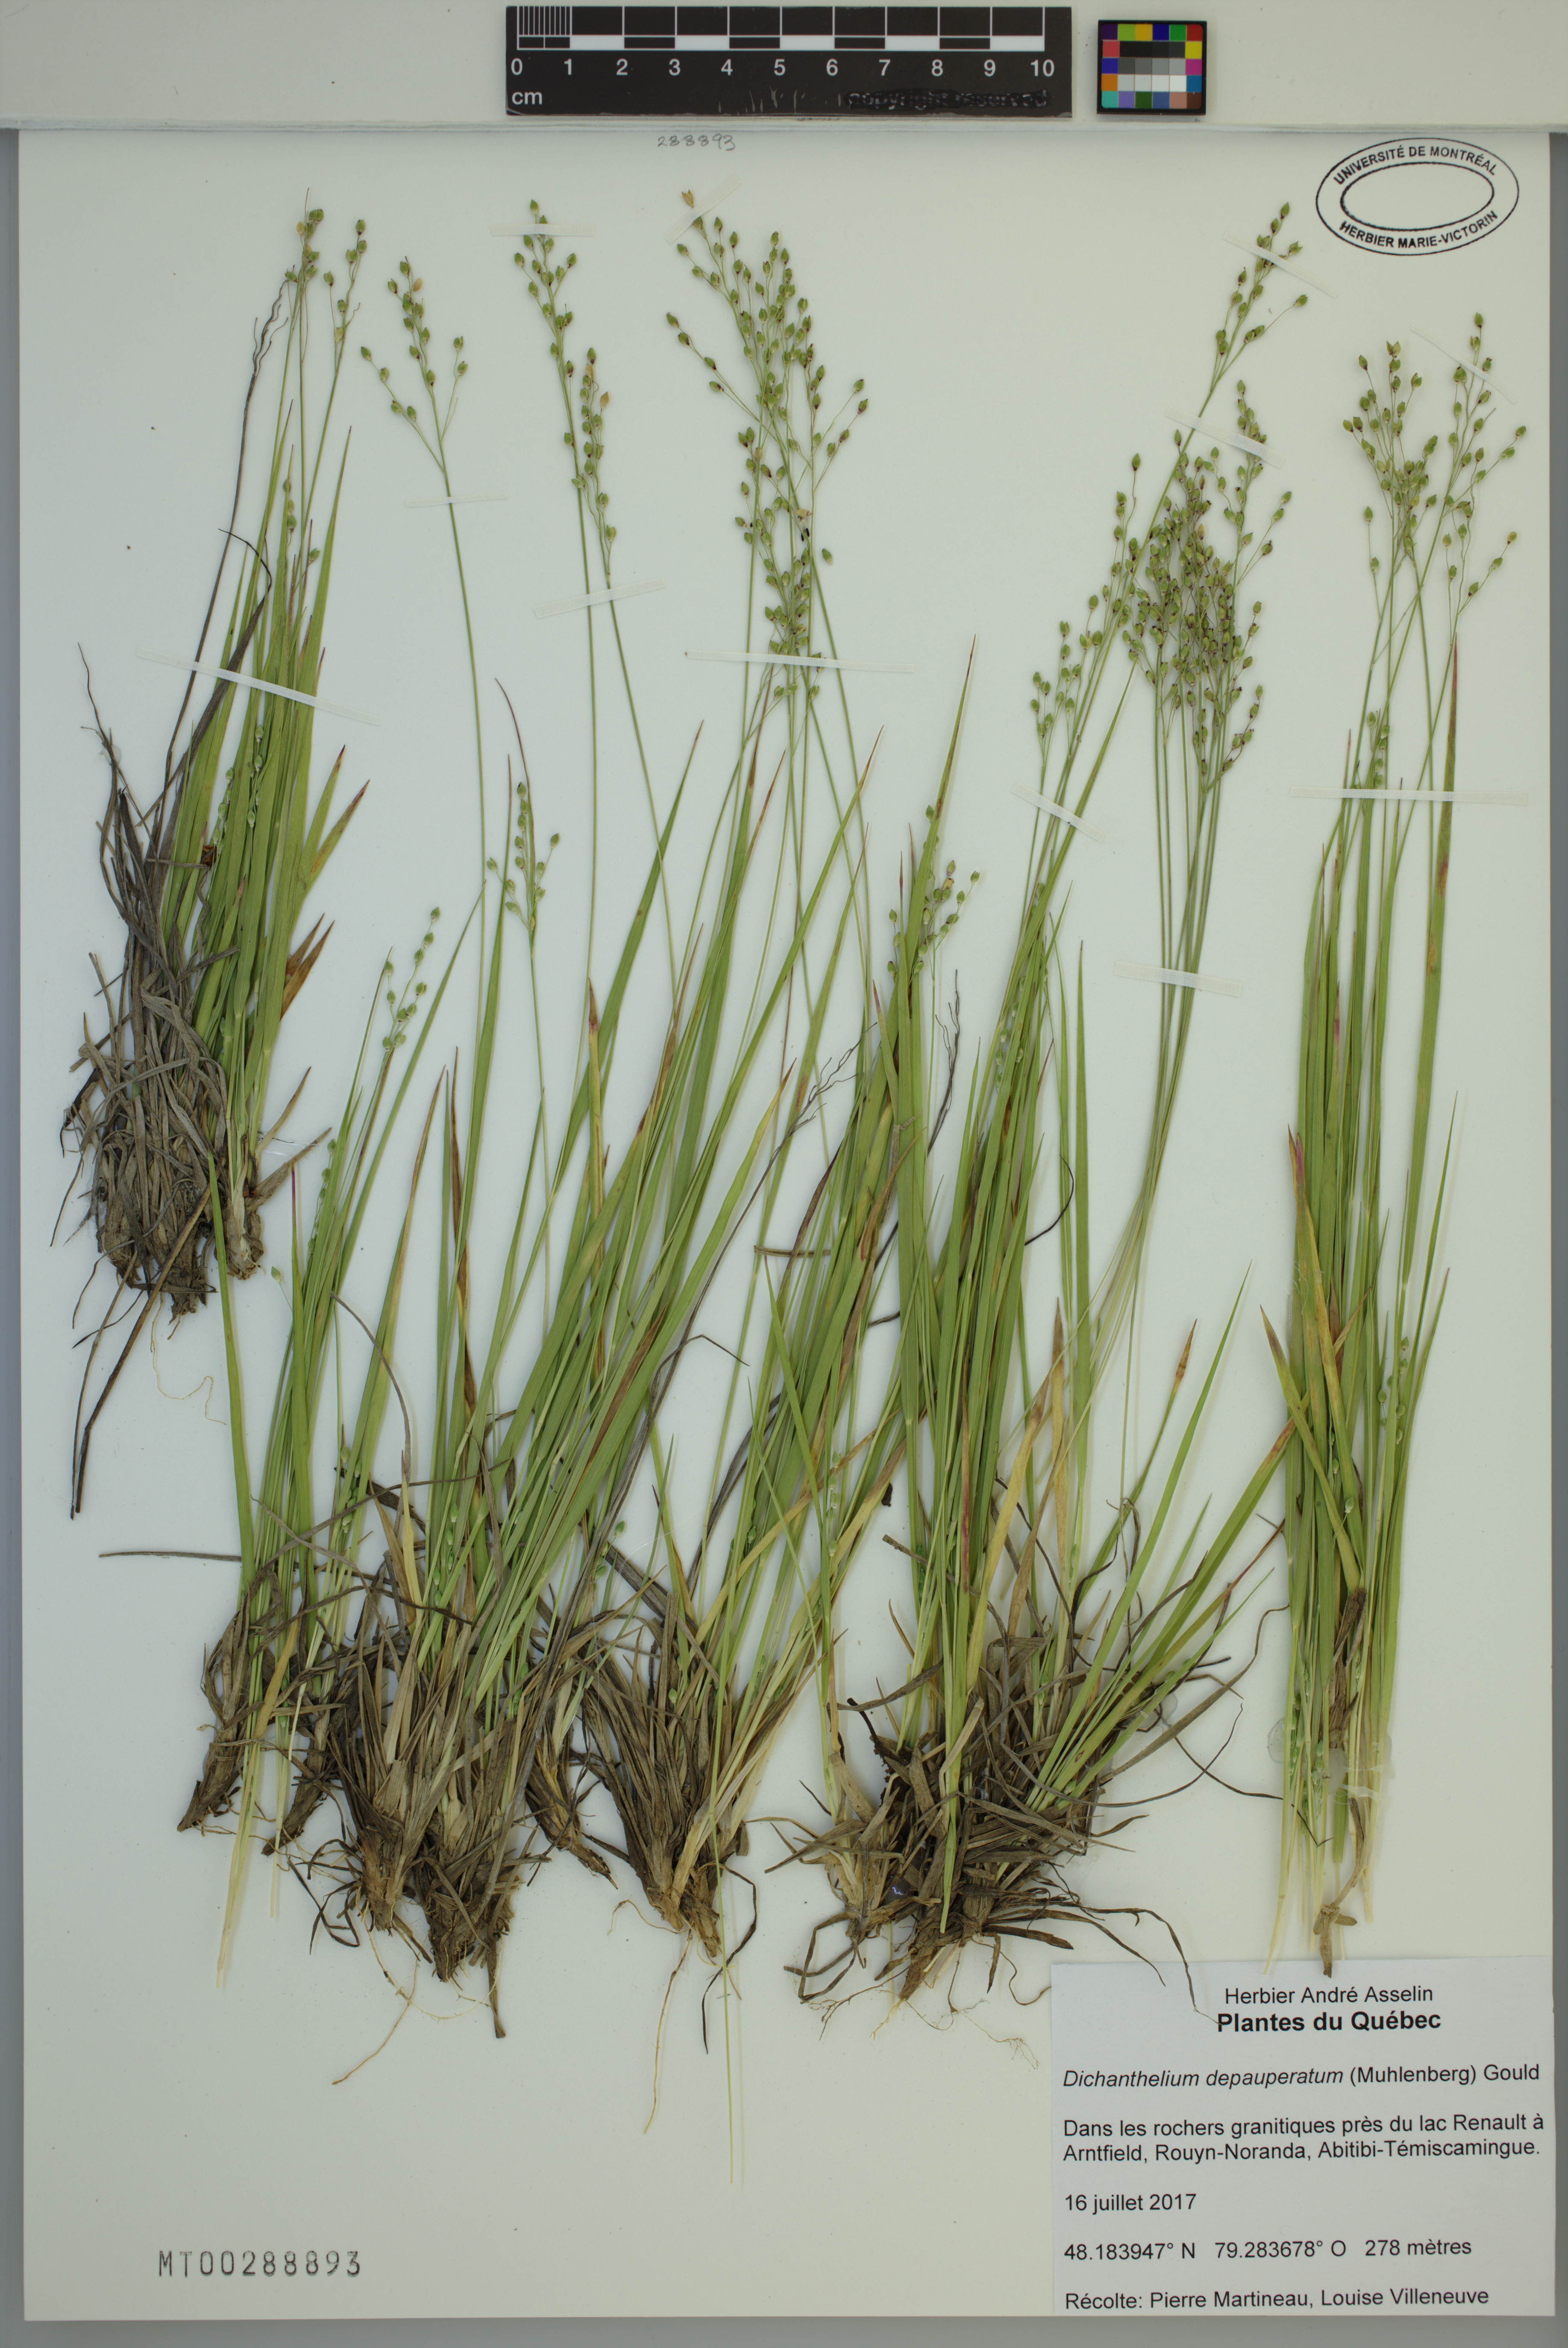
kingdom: Plantae
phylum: Tracheophyta
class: Liliopsida
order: Poales
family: Poaceae
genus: Dichanthelium
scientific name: Dichanthelium depauperatum
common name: Depauperate panicgrass
